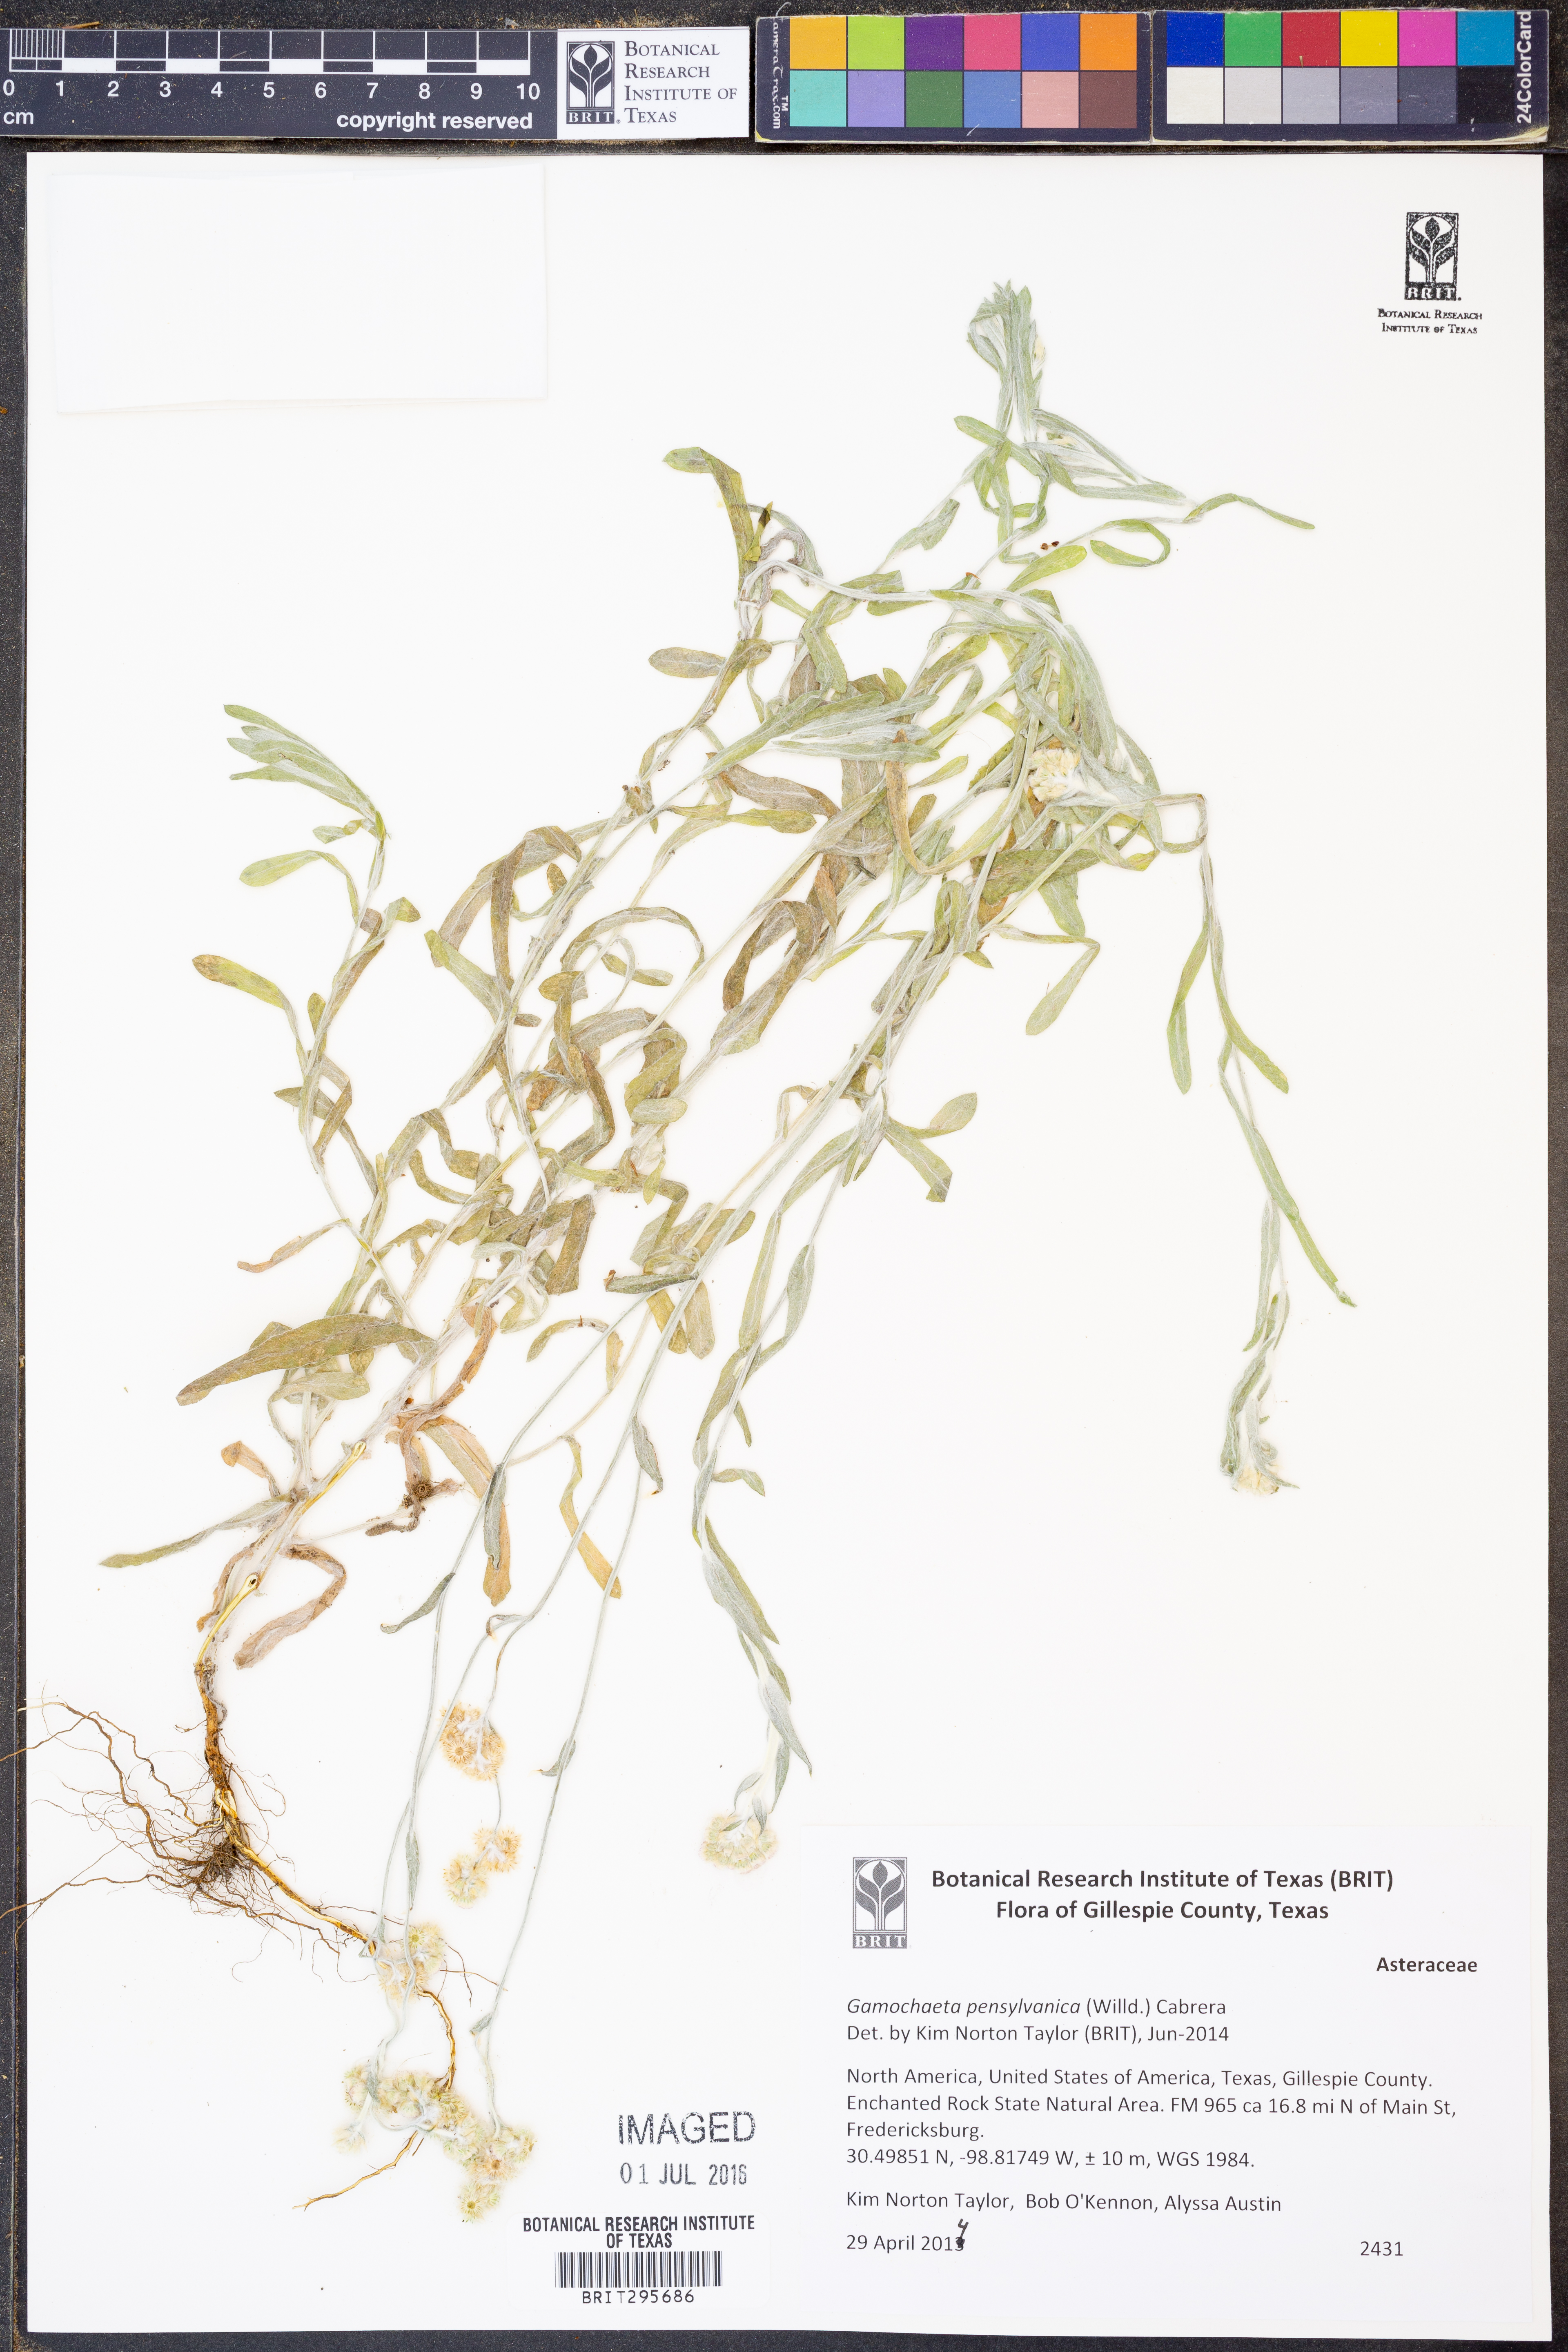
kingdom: Plantae
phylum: Tracheophyta
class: Magnoliopsida
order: Asterales
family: Asteraceae
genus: Gamochaeta
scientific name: Gamochaeta pensylvanica
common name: Pennsylvania everlasting
